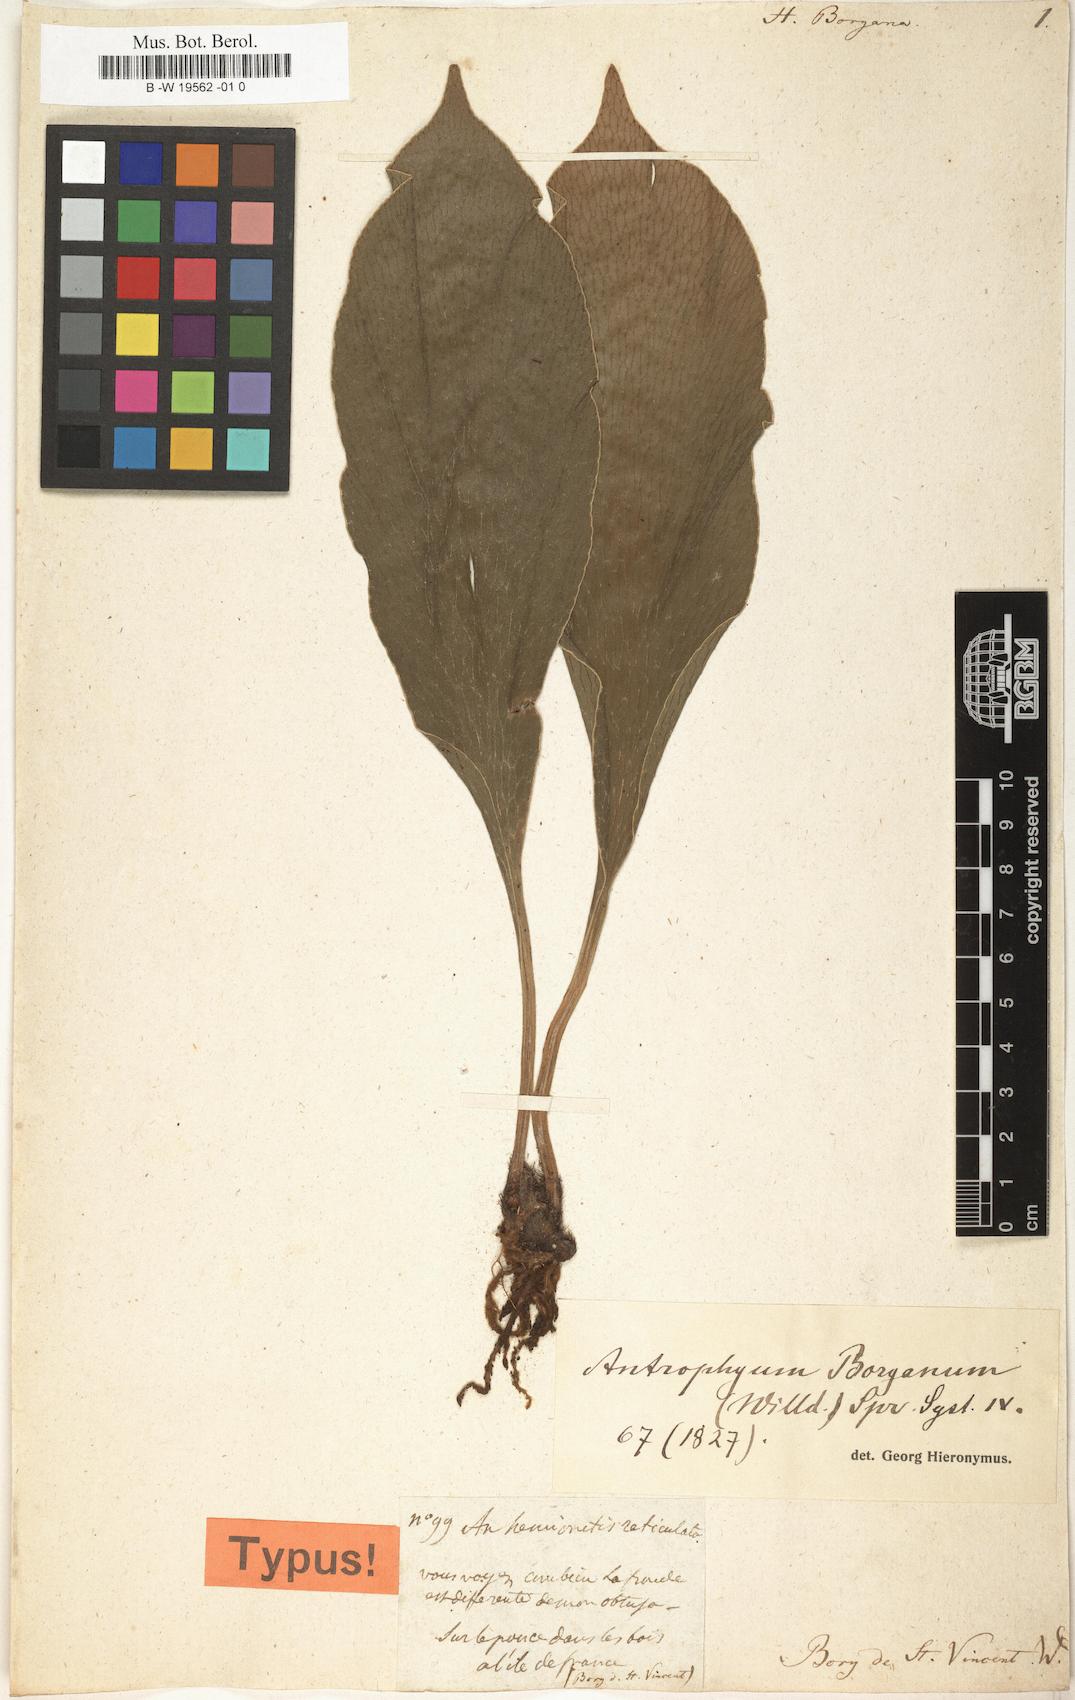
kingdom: Plantae
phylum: Tracheophyta
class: Polypodiopsida
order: Polypodiales
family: Pteridaceae
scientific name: Pteridaceae
